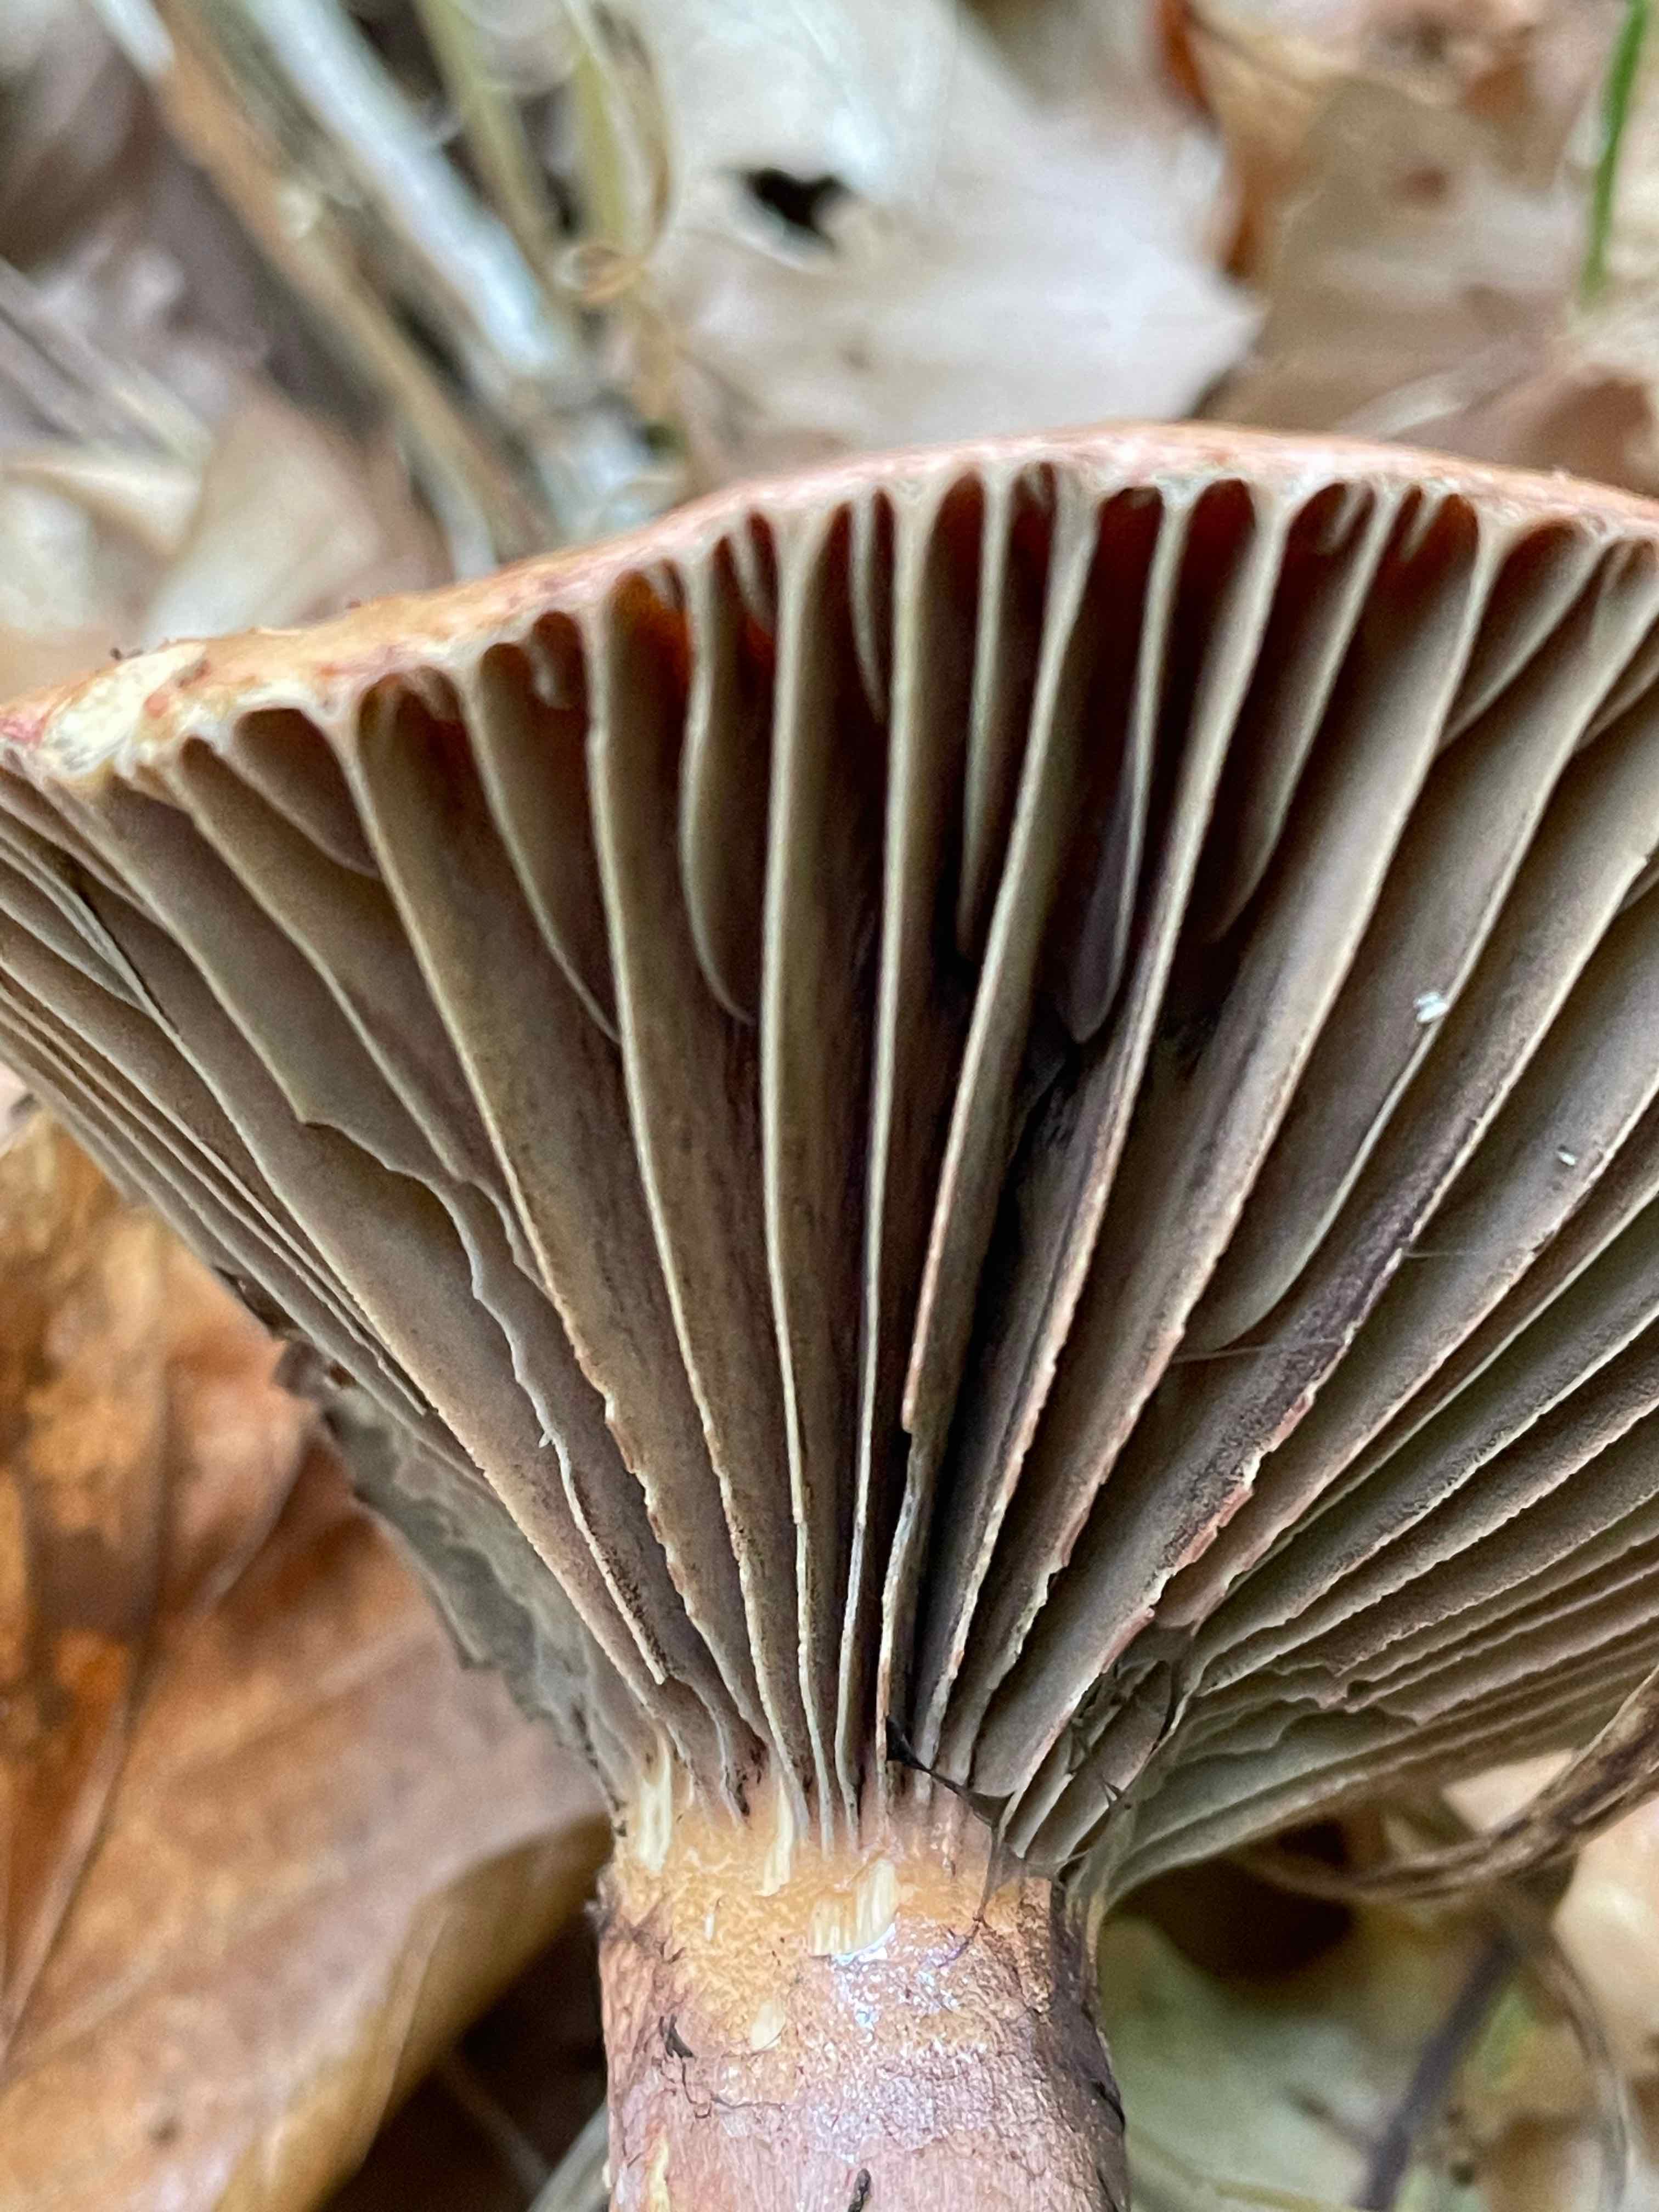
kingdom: Fungi
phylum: Basidiomycota
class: Agaricomycetes
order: Boletales
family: Gomphidiaceae
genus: Chroogomphus
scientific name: Chroogomphus rutilus
